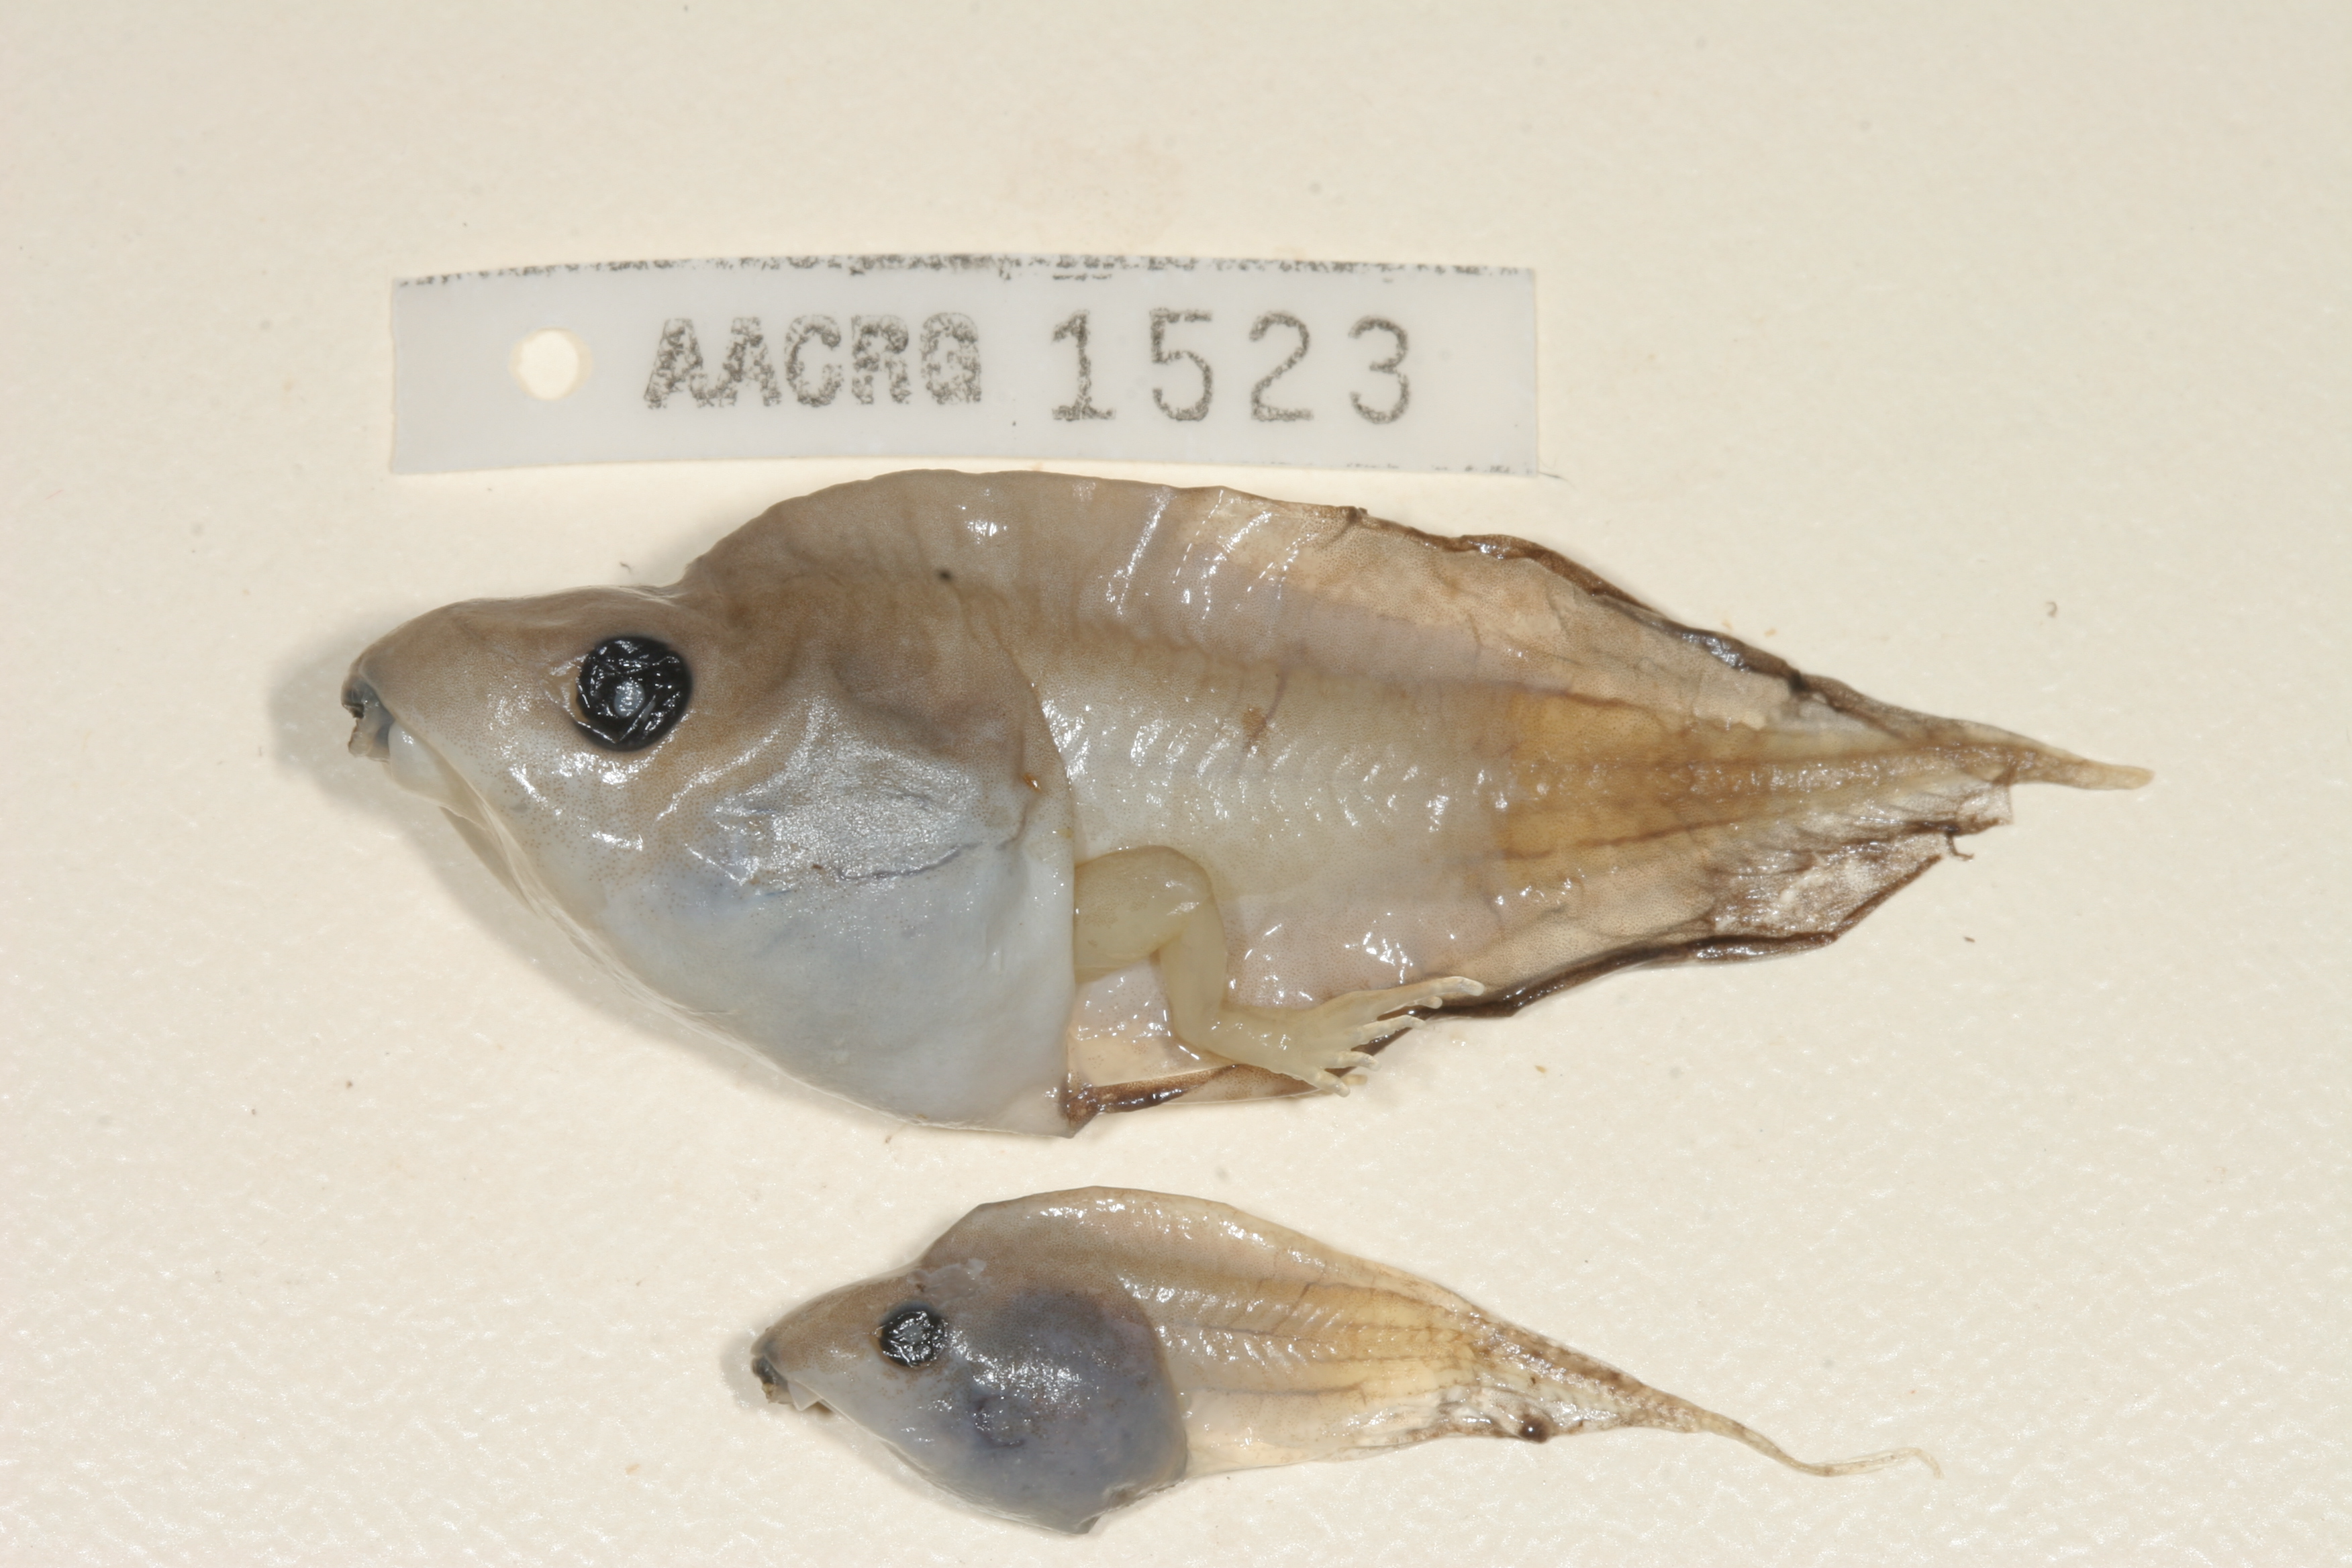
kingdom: Animalia
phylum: Chordata
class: Amphibia
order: Anura
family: Hyperoliidae
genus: Kassina
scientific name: Kassina senegalensis
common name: Senegal land frog
